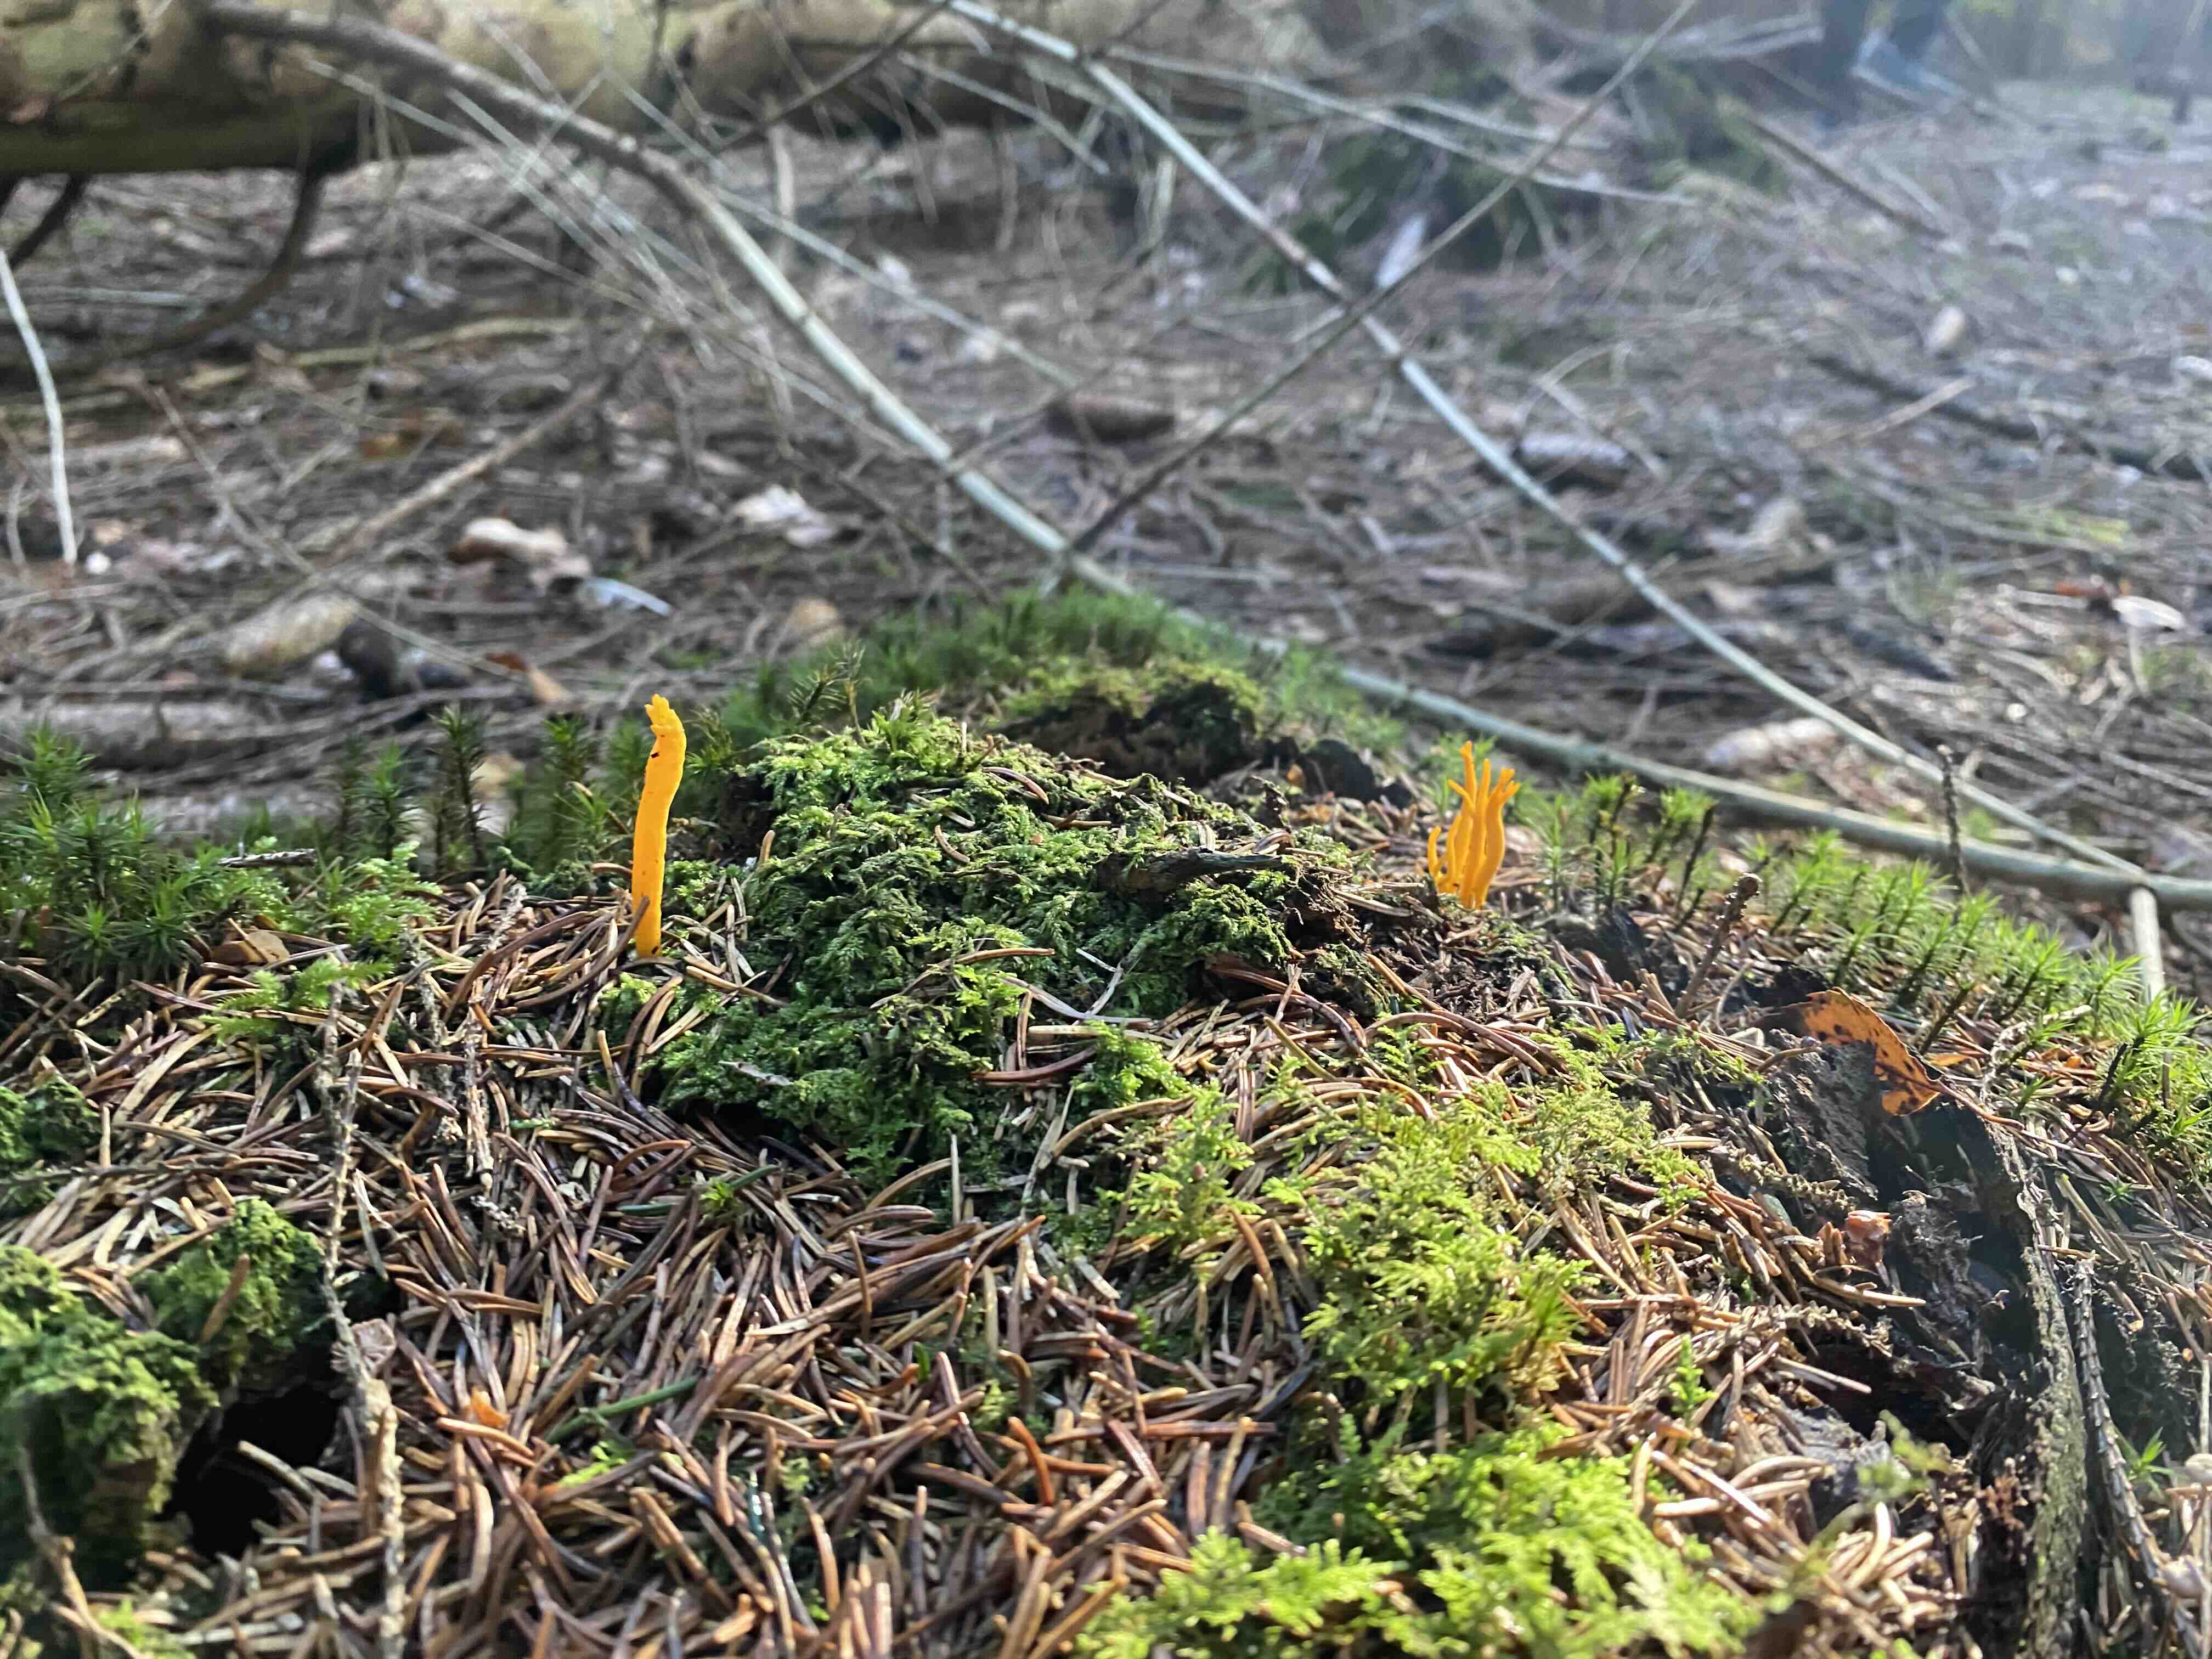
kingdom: Fungi
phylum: Basidiomycota
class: Dacrymycetes
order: Dacrymycetales
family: Dacrymycetaceae
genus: Calocera
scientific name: Calocera viscosa
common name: almindelig guldgaffel
